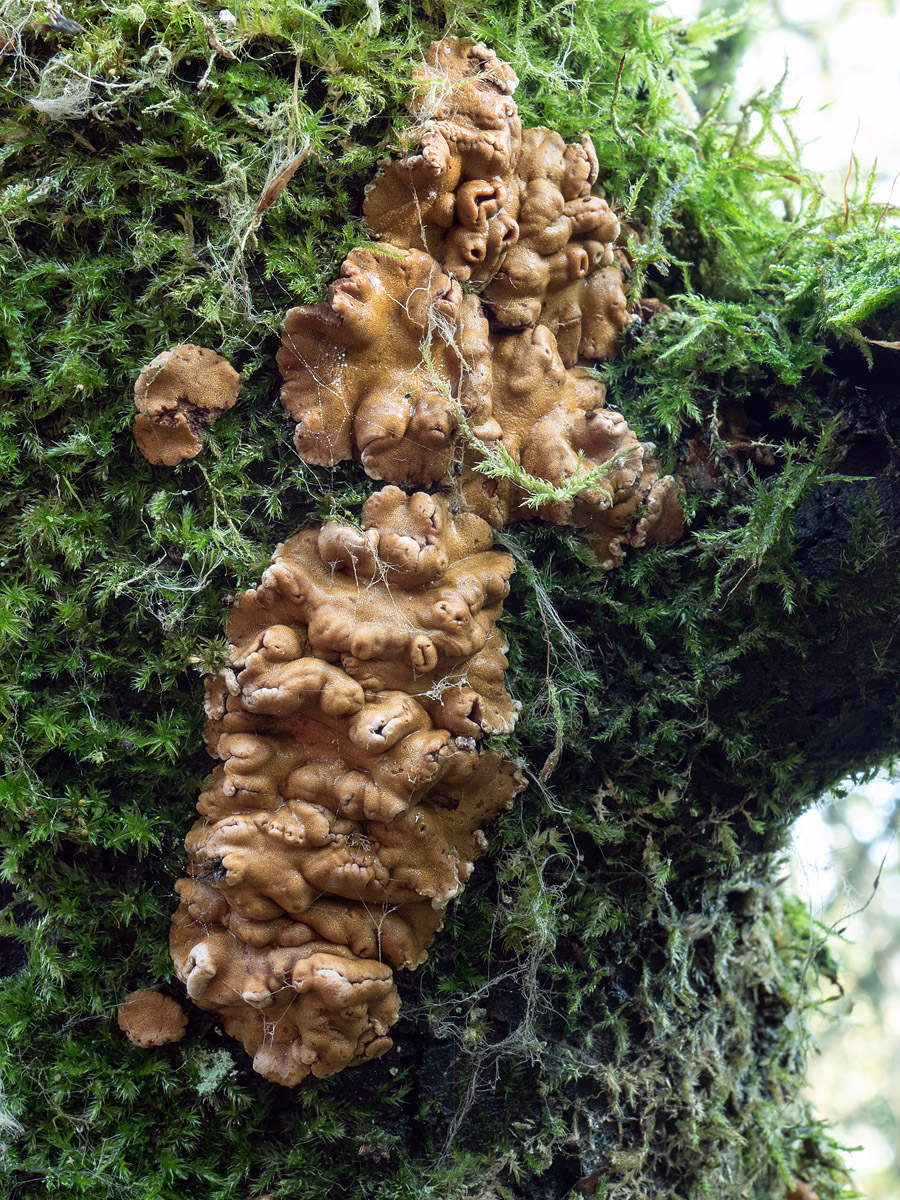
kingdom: Fungi
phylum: Ascomycota
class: Sordariomycetes
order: Hypocreales
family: Hypocreaceae
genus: Trichoderma
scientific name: Trichoderma britdaniae
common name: pilemose-kødkerne
